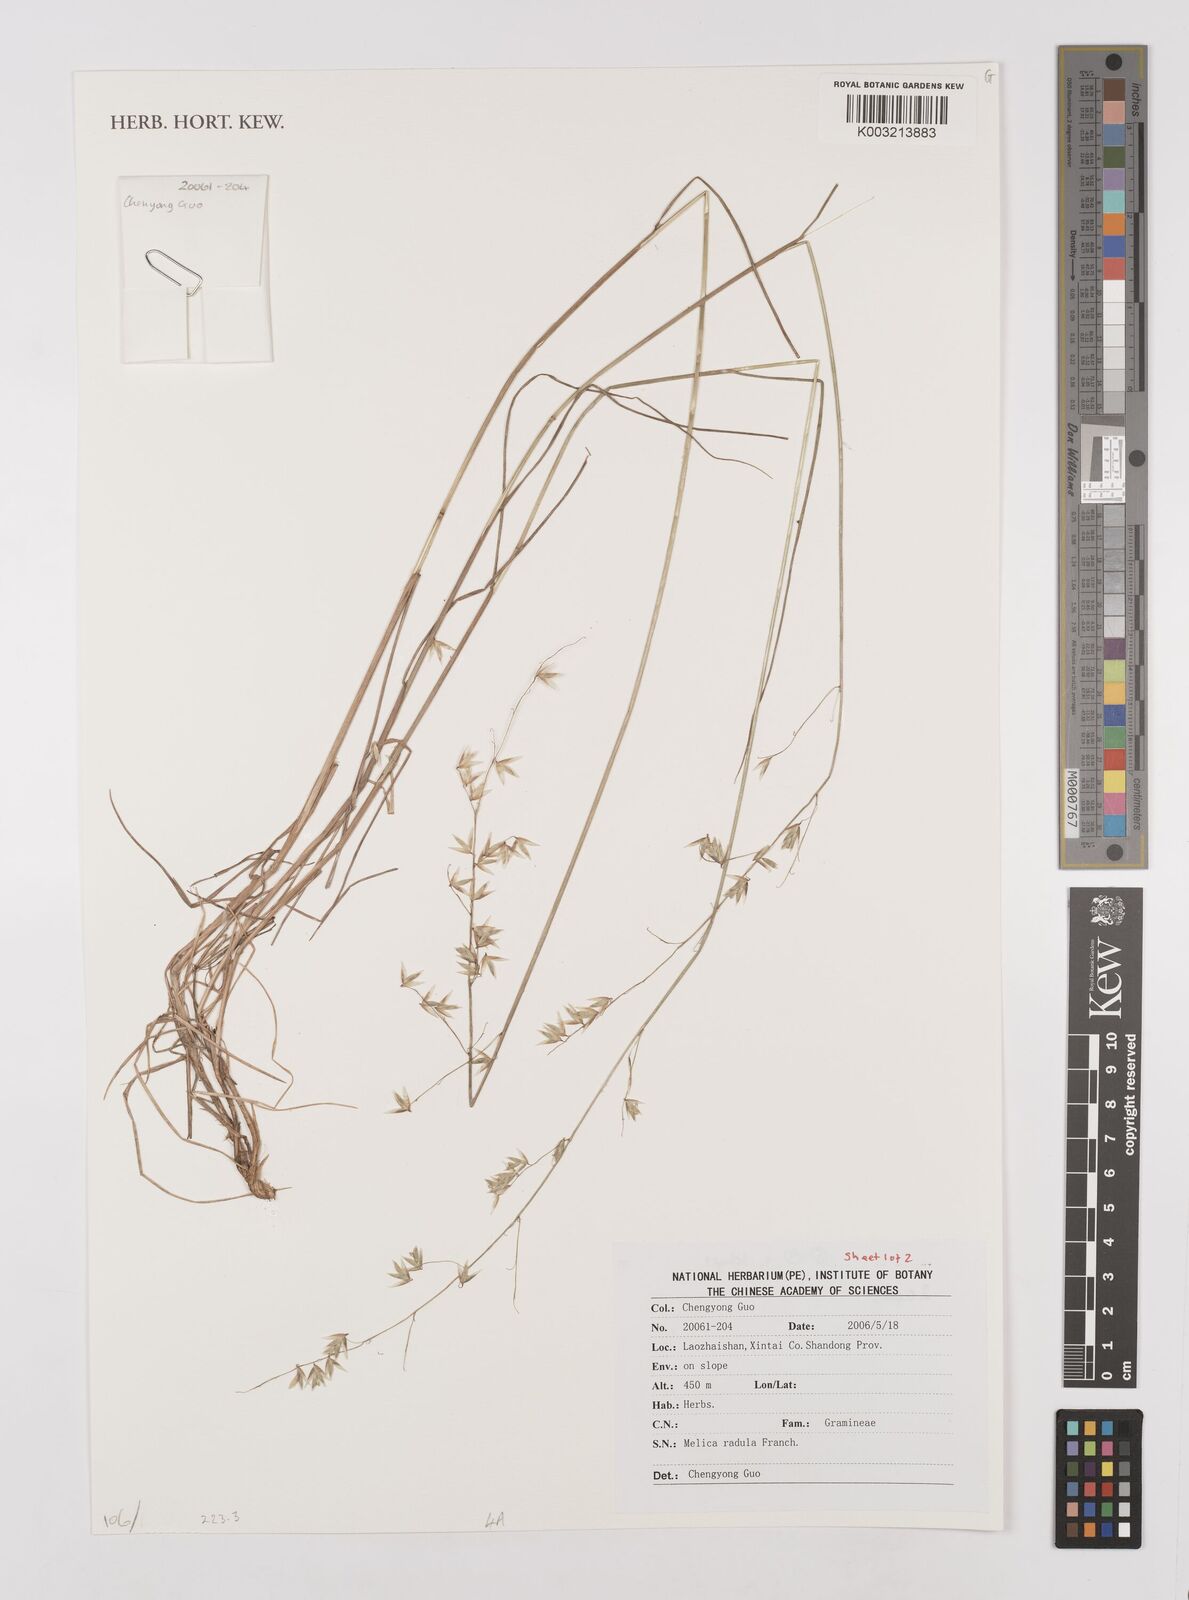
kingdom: Plantae
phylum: Tracheophyta
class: Liliopsida
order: Poales
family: Poaceae
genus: Melica
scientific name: Melica radula
